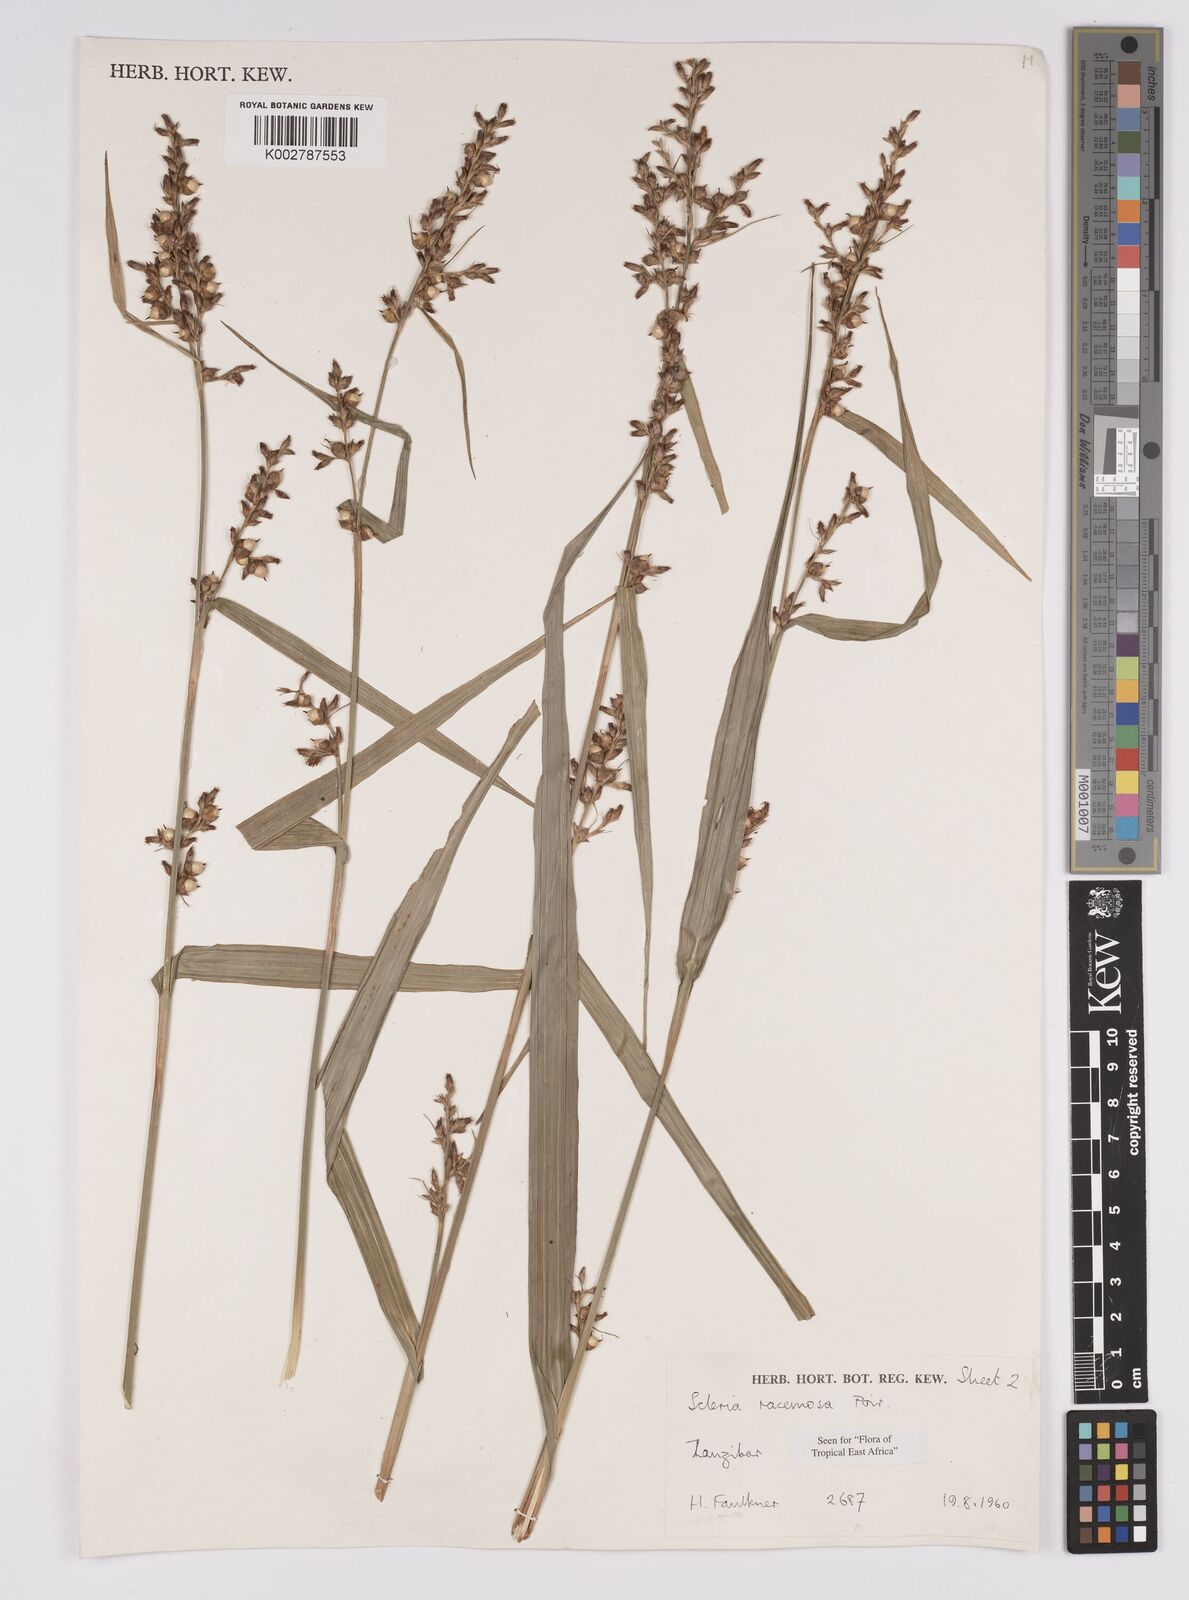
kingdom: Plantae
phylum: Tracheophyta
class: Liliopsida
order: Poales
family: Cyperaceae
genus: Scleria
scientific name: Scleria racemosa
